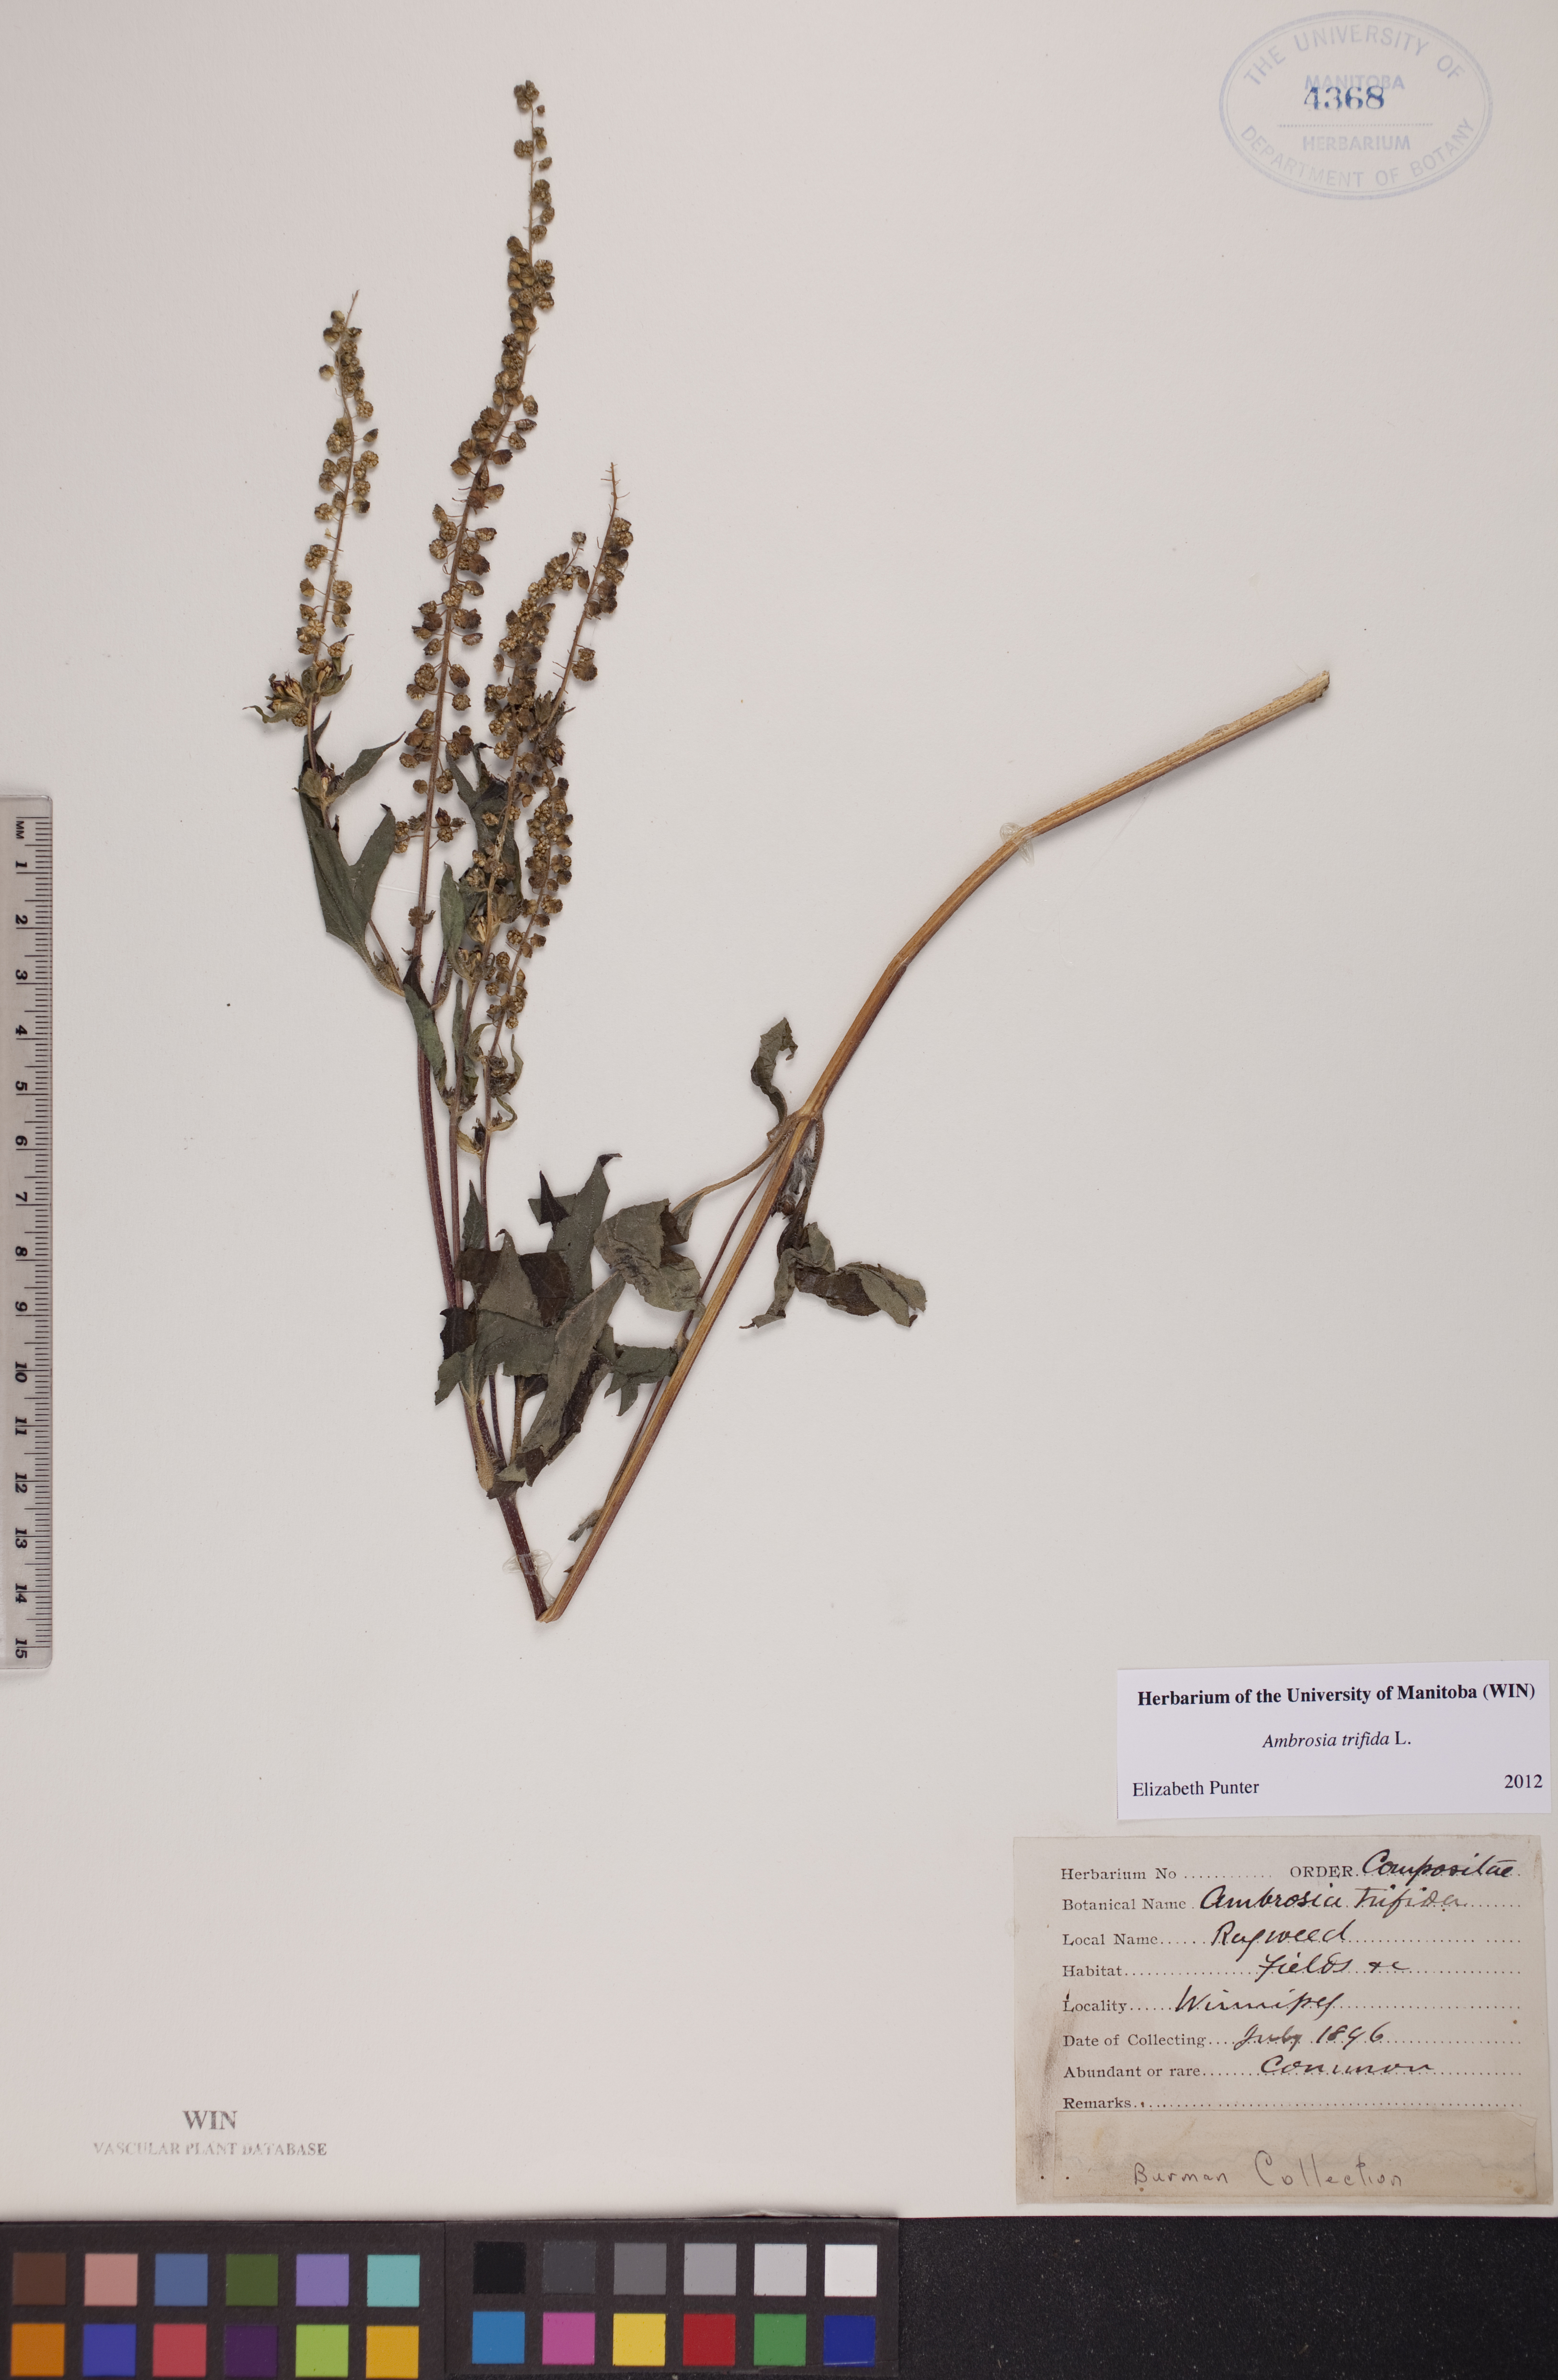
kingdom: Plantae
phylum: Tracheophyta
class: Magnoliopsida
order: Asterales
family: Asteraceae
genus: Ambrosia
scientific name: Ambrosia trifida
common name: Giant ragweed
